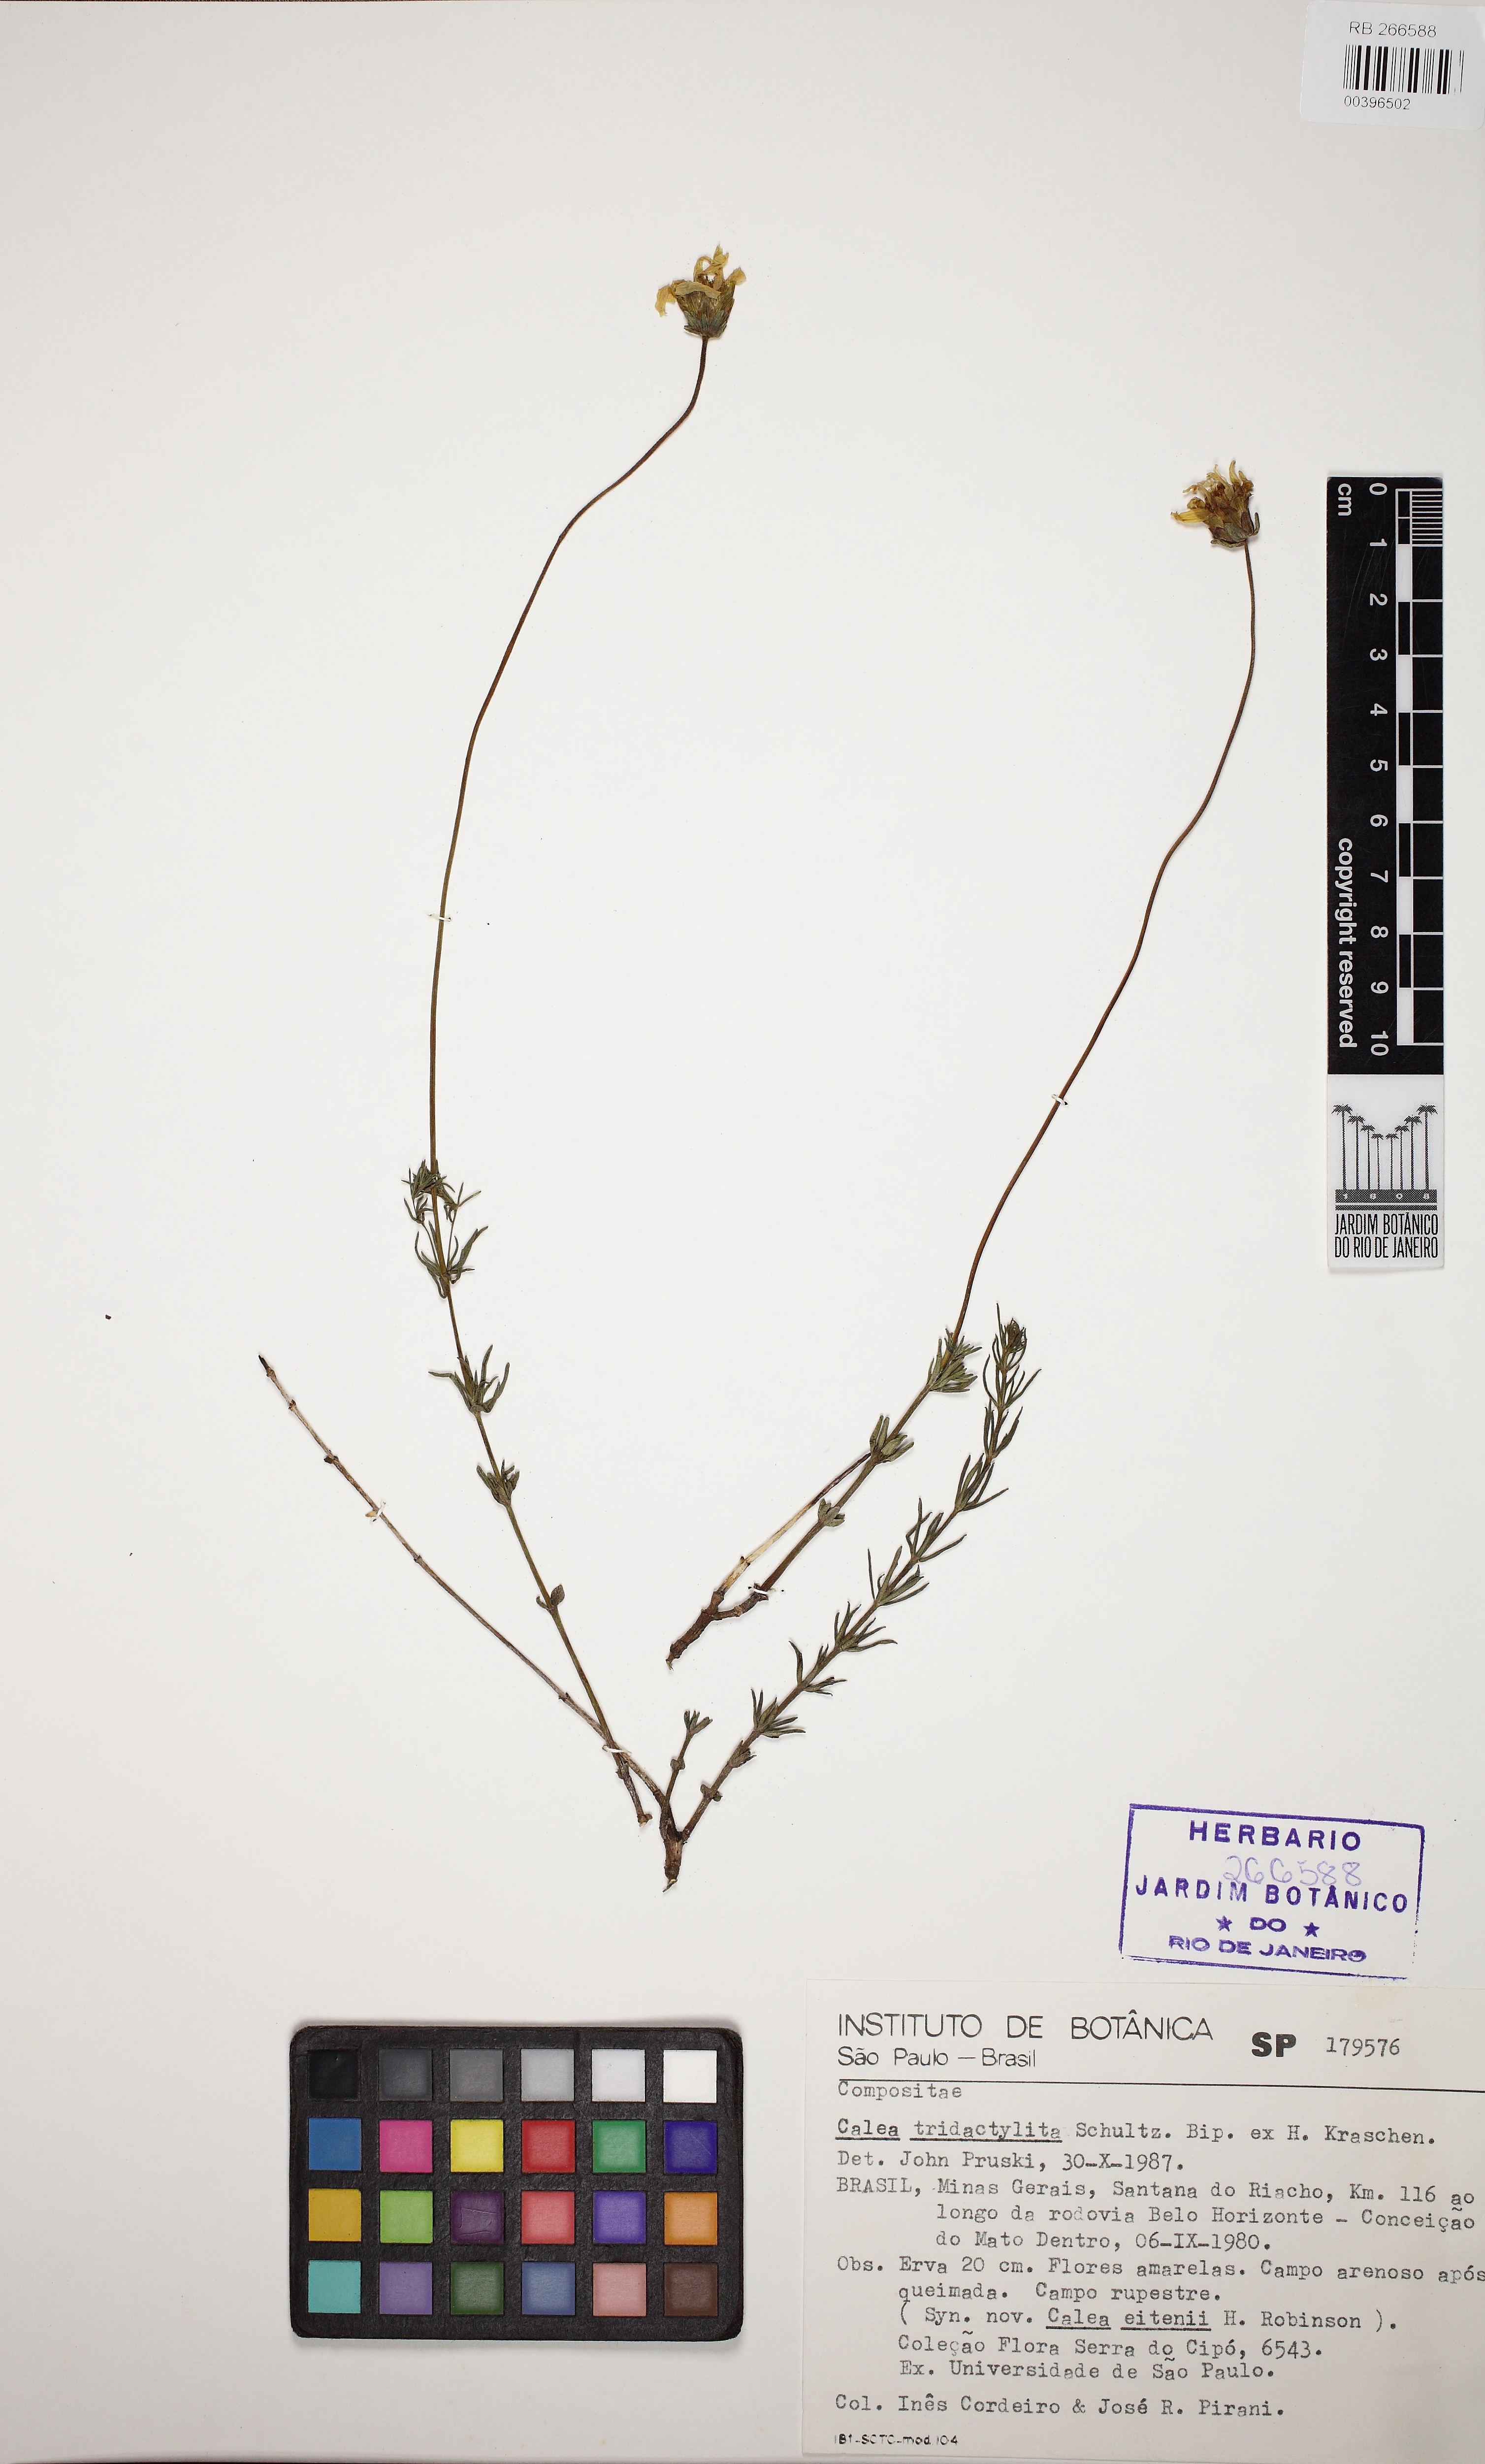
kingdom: Plantae
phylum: Tracheophyta
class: Magnoliopsida
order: Asterales
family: Asteraceae
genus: Calea
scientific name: Calea tridactylita
